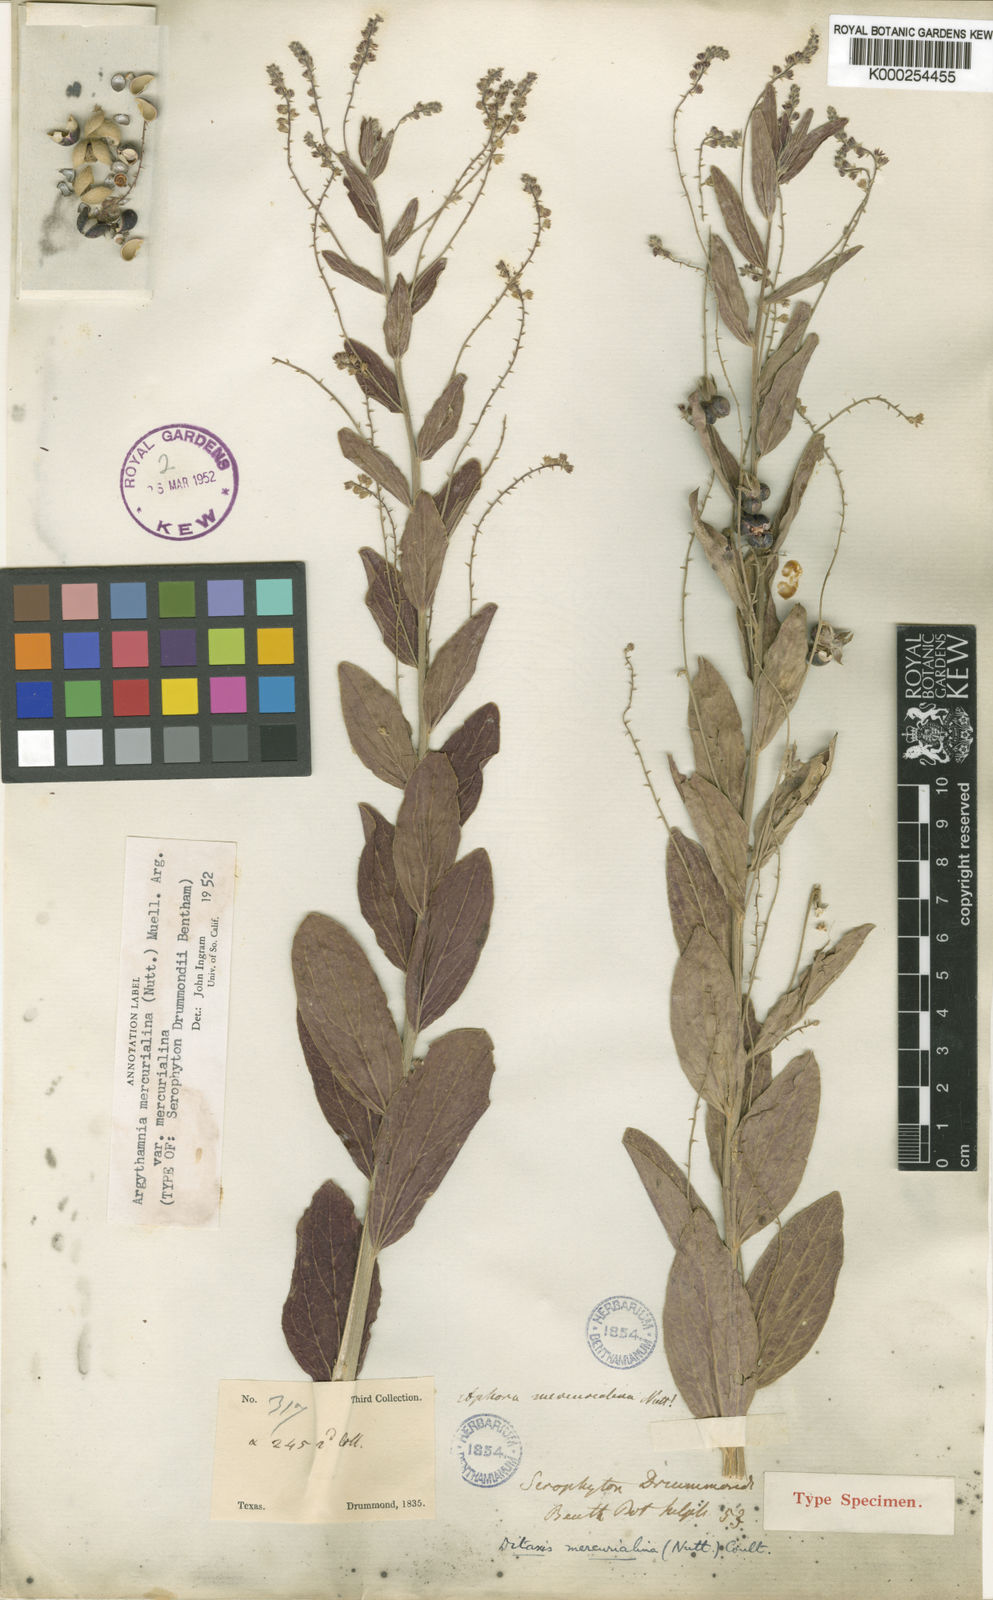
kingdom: Plantae
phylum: Tracheophyta
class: Magnoliopsida
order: Malpighiales
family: Euphorbiaceae
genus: Ditaxis
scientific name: Ditaxis mercurialina
